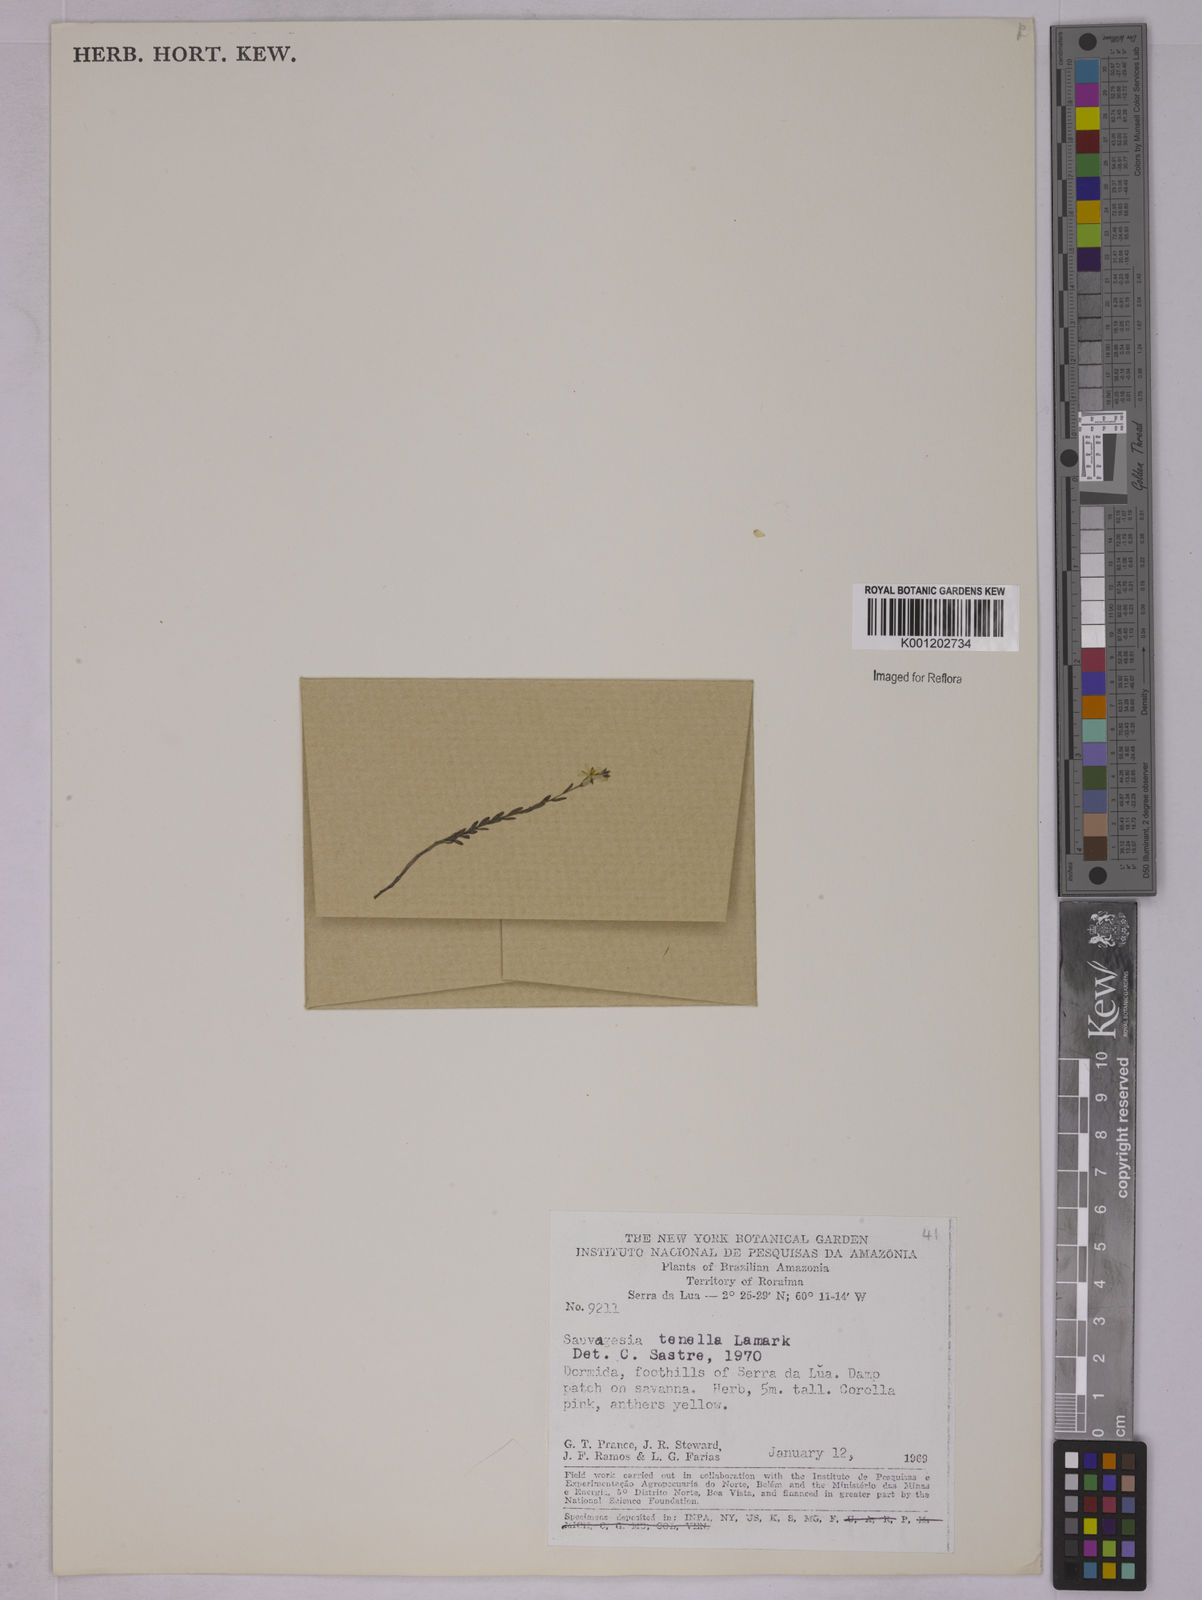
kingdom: Plantae
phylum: Tracheophyta
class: Magnoliopsida
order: Malpighiales
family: Ochnaceae
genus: Sauvagesia
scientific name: Sauvagesia tenella
